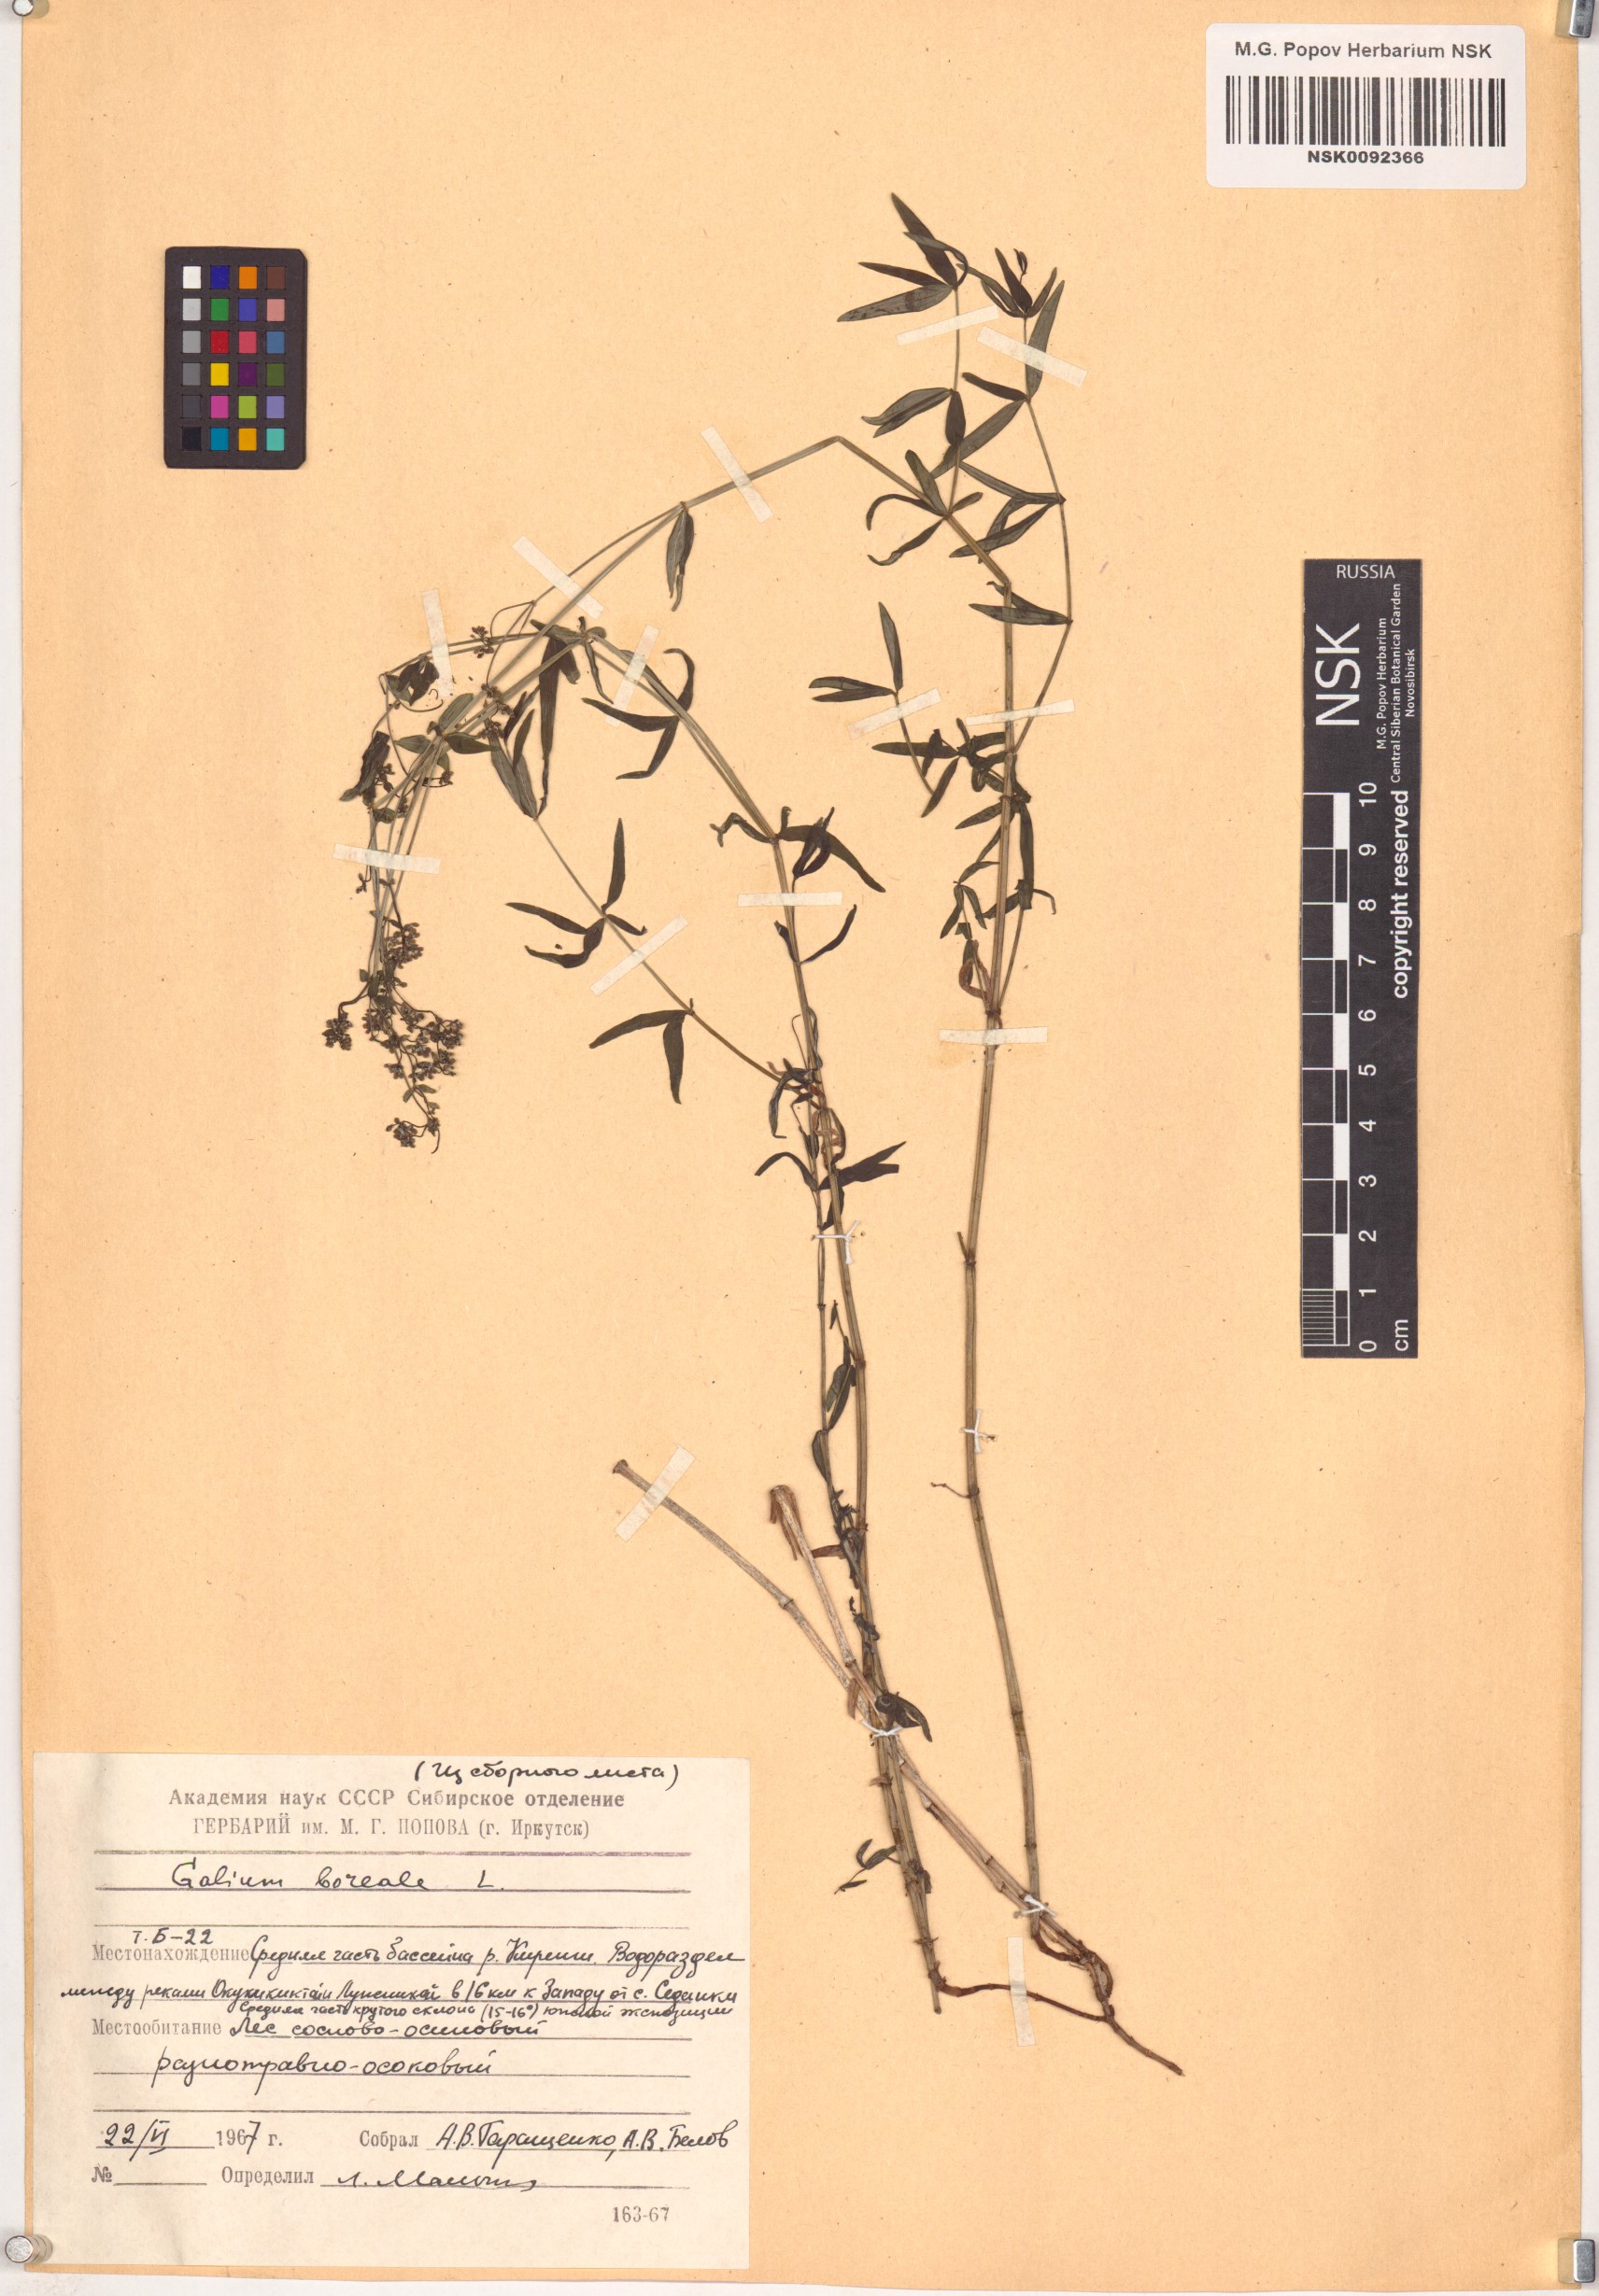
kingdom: Plantae
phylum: Tracheophyta
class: Magnoliopsida
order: Gentianales
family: Rubiaceae
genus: Galium
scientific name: Galium boreale
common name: Northern bedstraw
